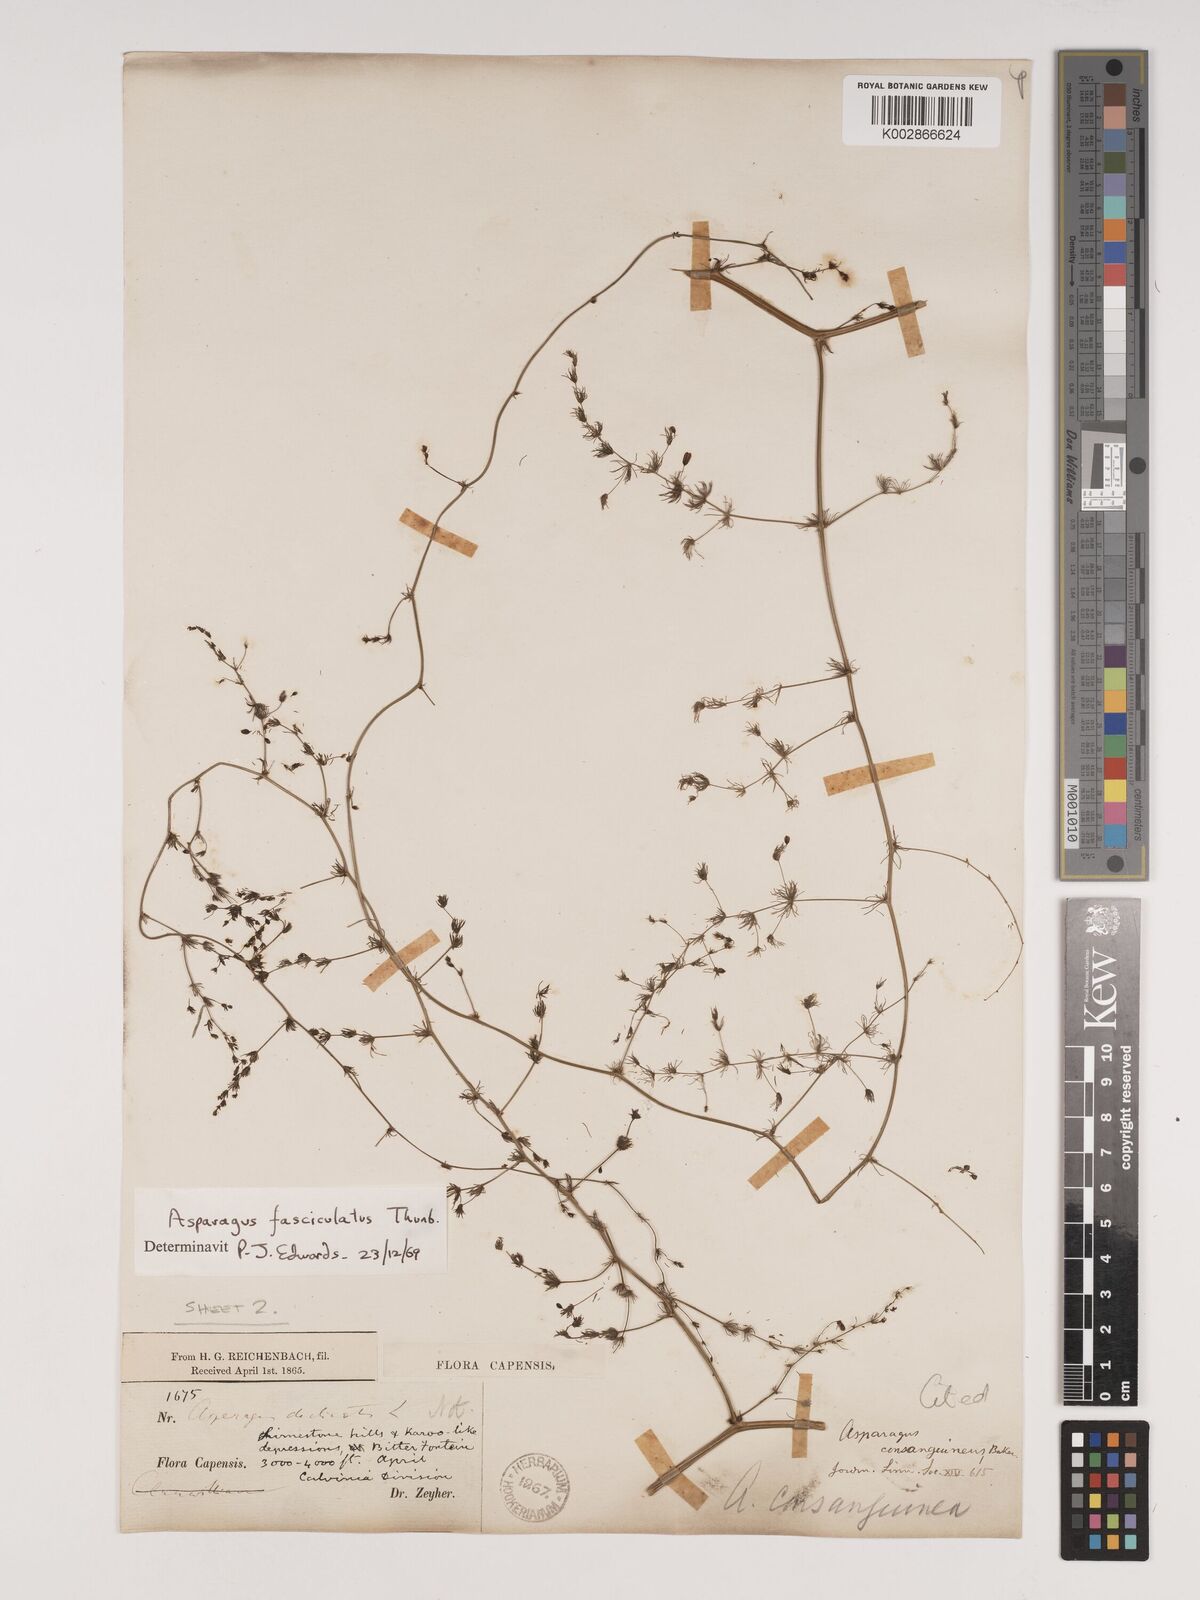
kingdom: Plantae
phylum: Tracheophyta
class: Liliopsida
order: Asparagales
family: Asparagaceae
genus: Asparagus
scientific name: Asparagus fasciculatus
